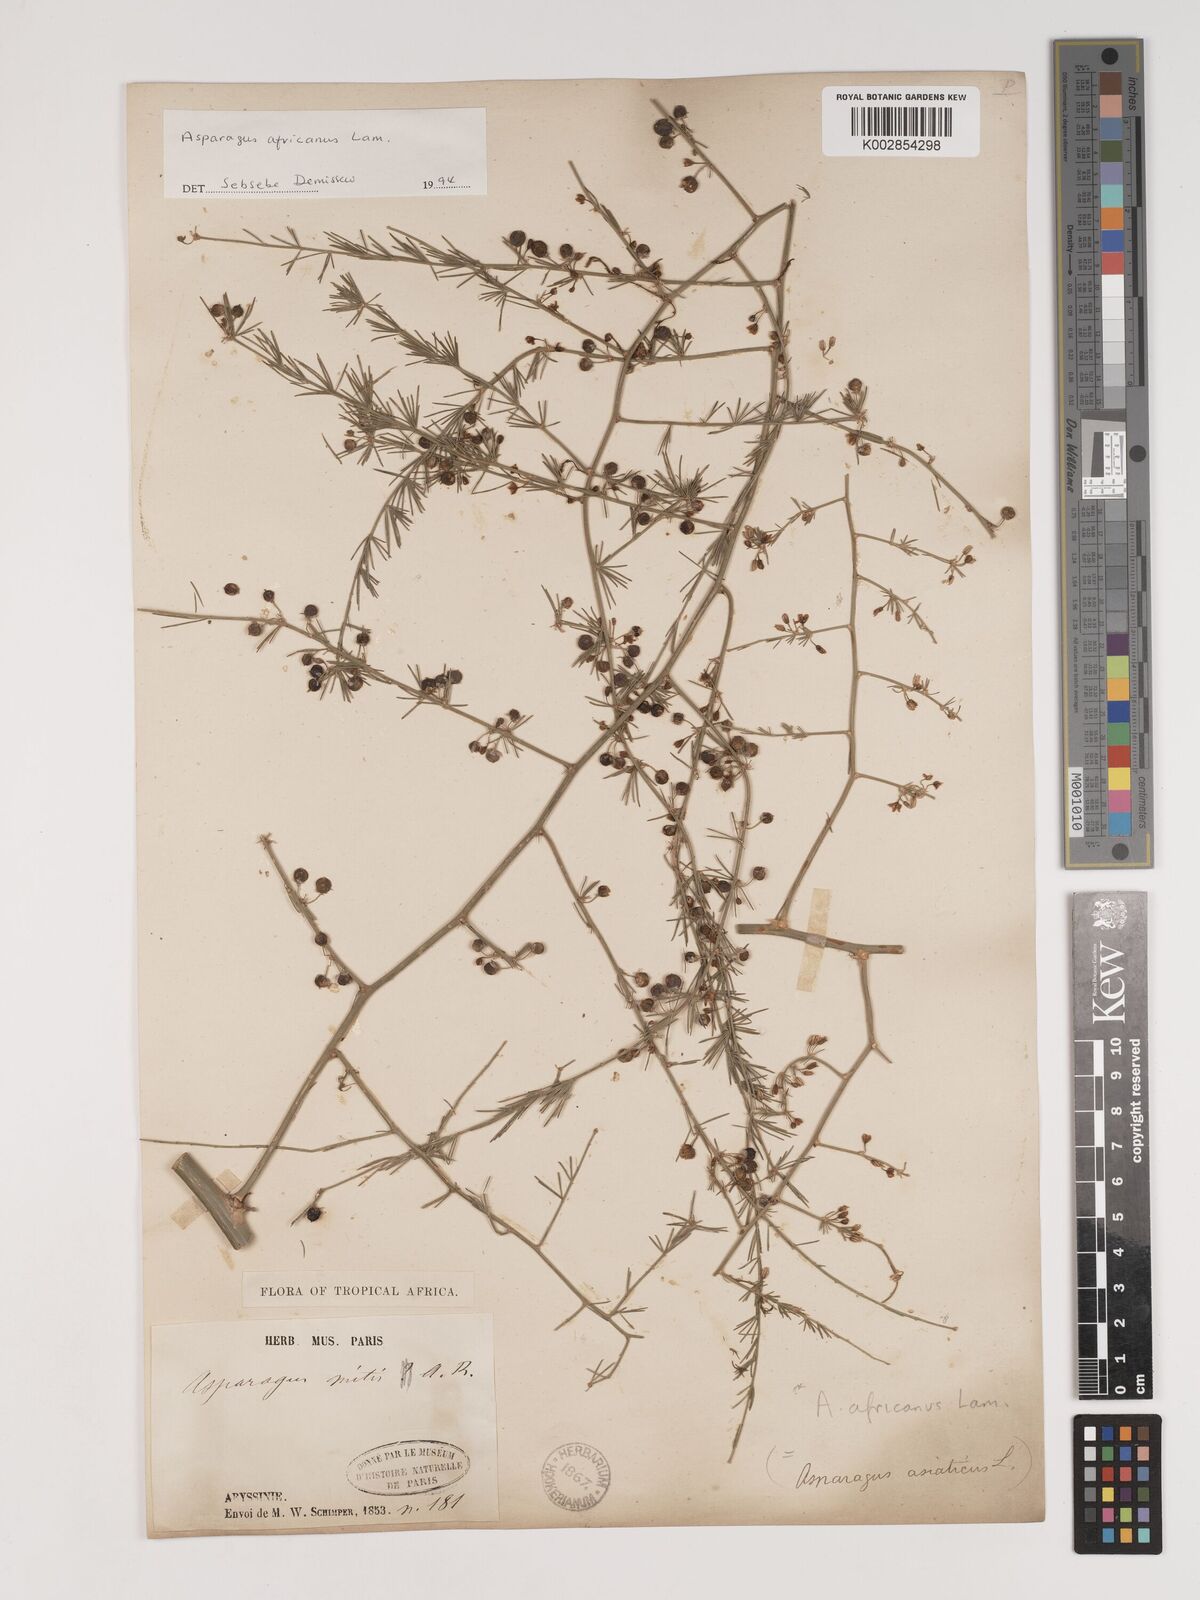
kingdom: Plantae
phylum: Tracheophyta
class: Liliopsida
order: Asparagales
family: Asparagaceae
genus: Asparagus
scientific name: Asparagus africanus
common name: Asparagus-fern
